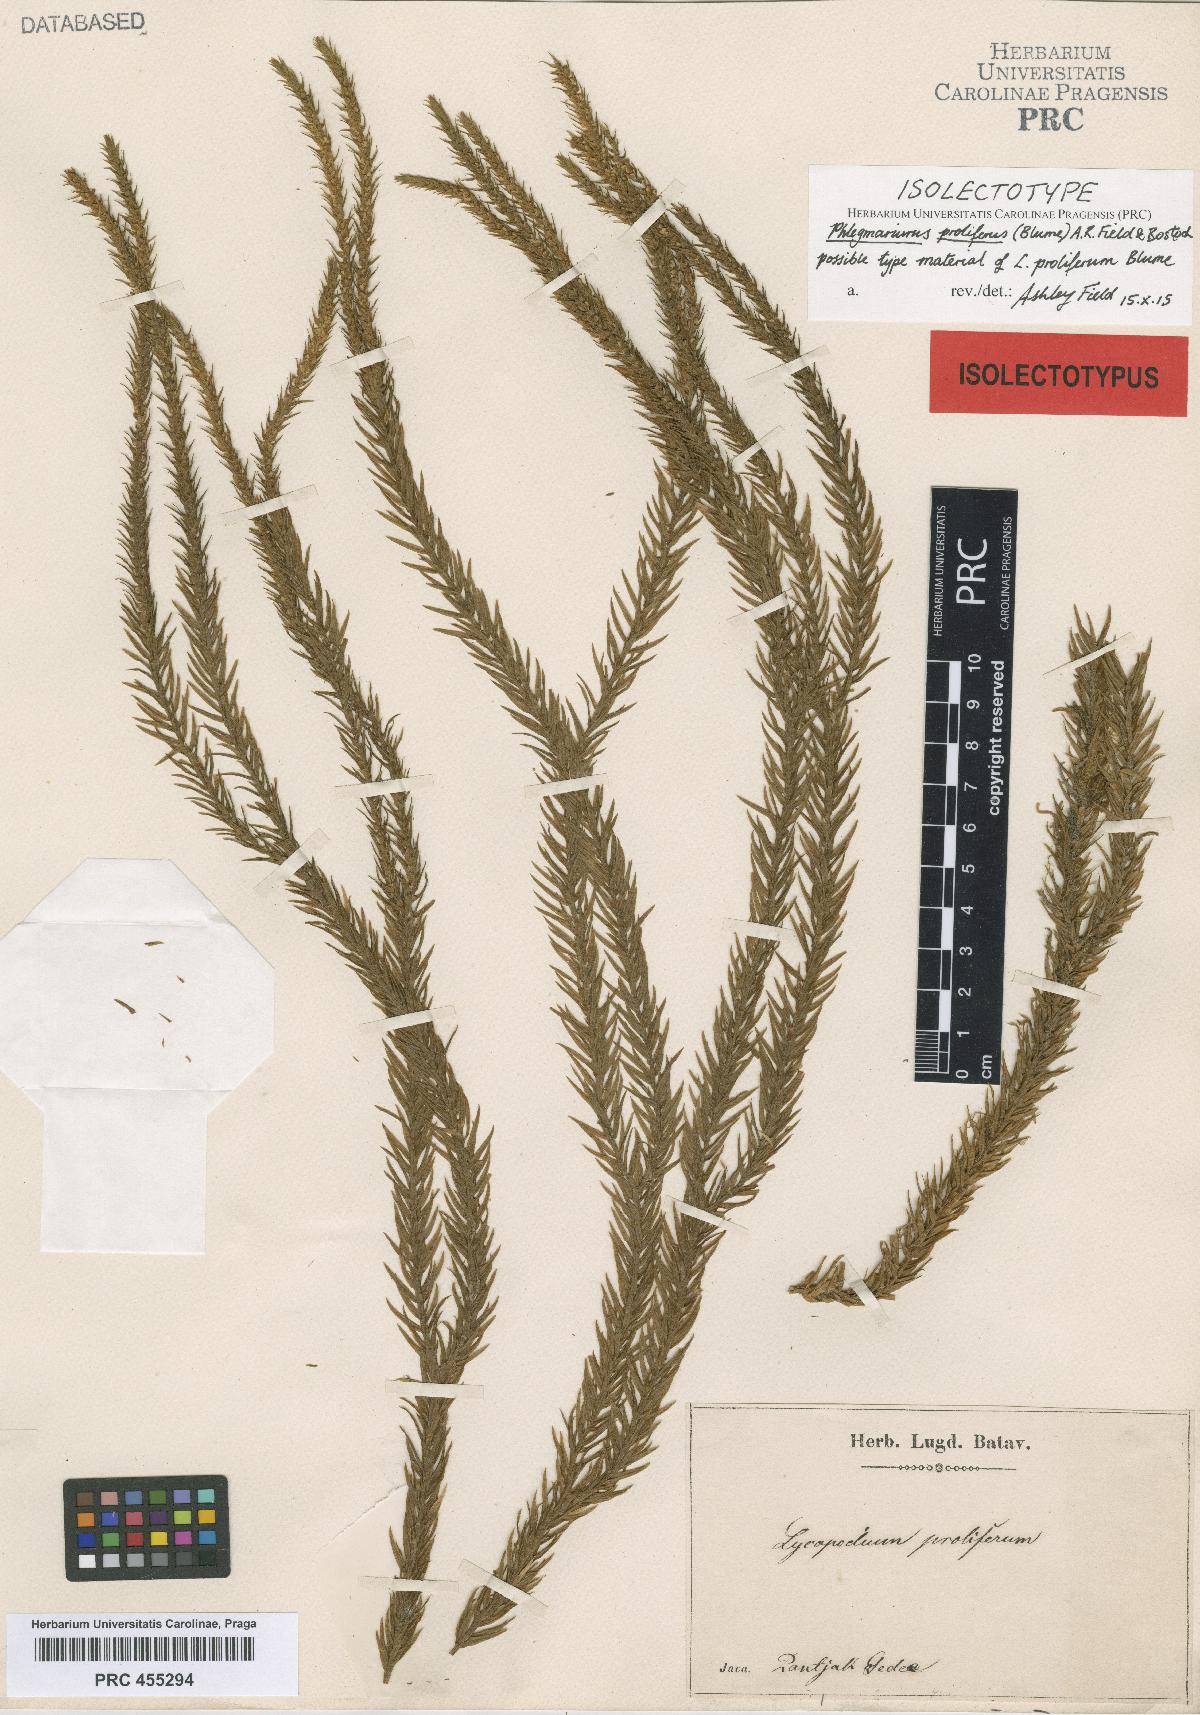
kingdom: Plantae
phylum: Tracheophyta
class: Lycopodiopsida
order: Lycopodiales
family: Lycopodiaceae
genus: Phlegmariurus
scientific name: Phlegmariurus proliferus
